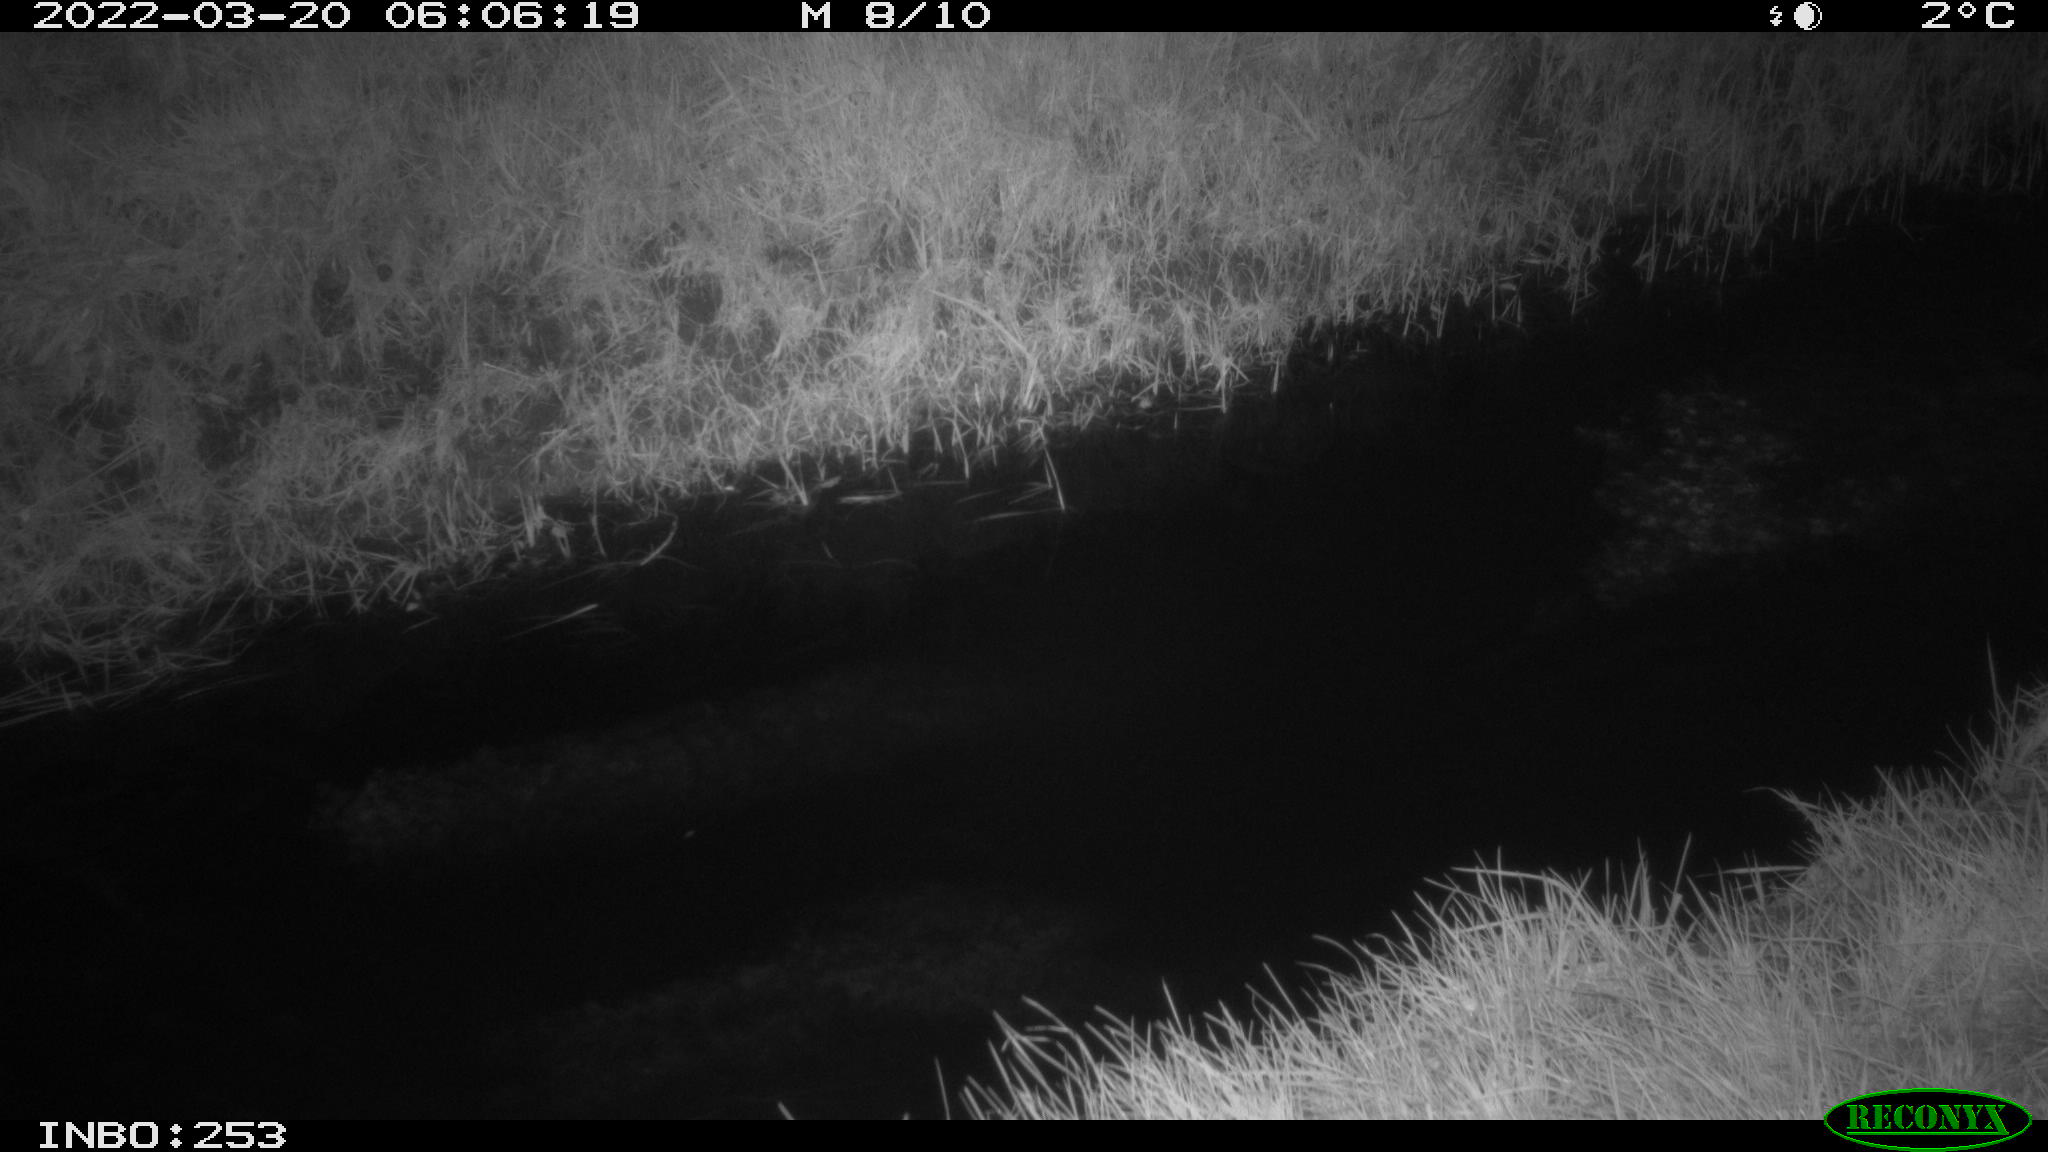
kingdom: Animalia
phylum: Chordata
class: Aves
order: Anseriformes
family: Anatidae
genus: Anas
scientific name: Anas platyrhynchos
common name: Mallard
